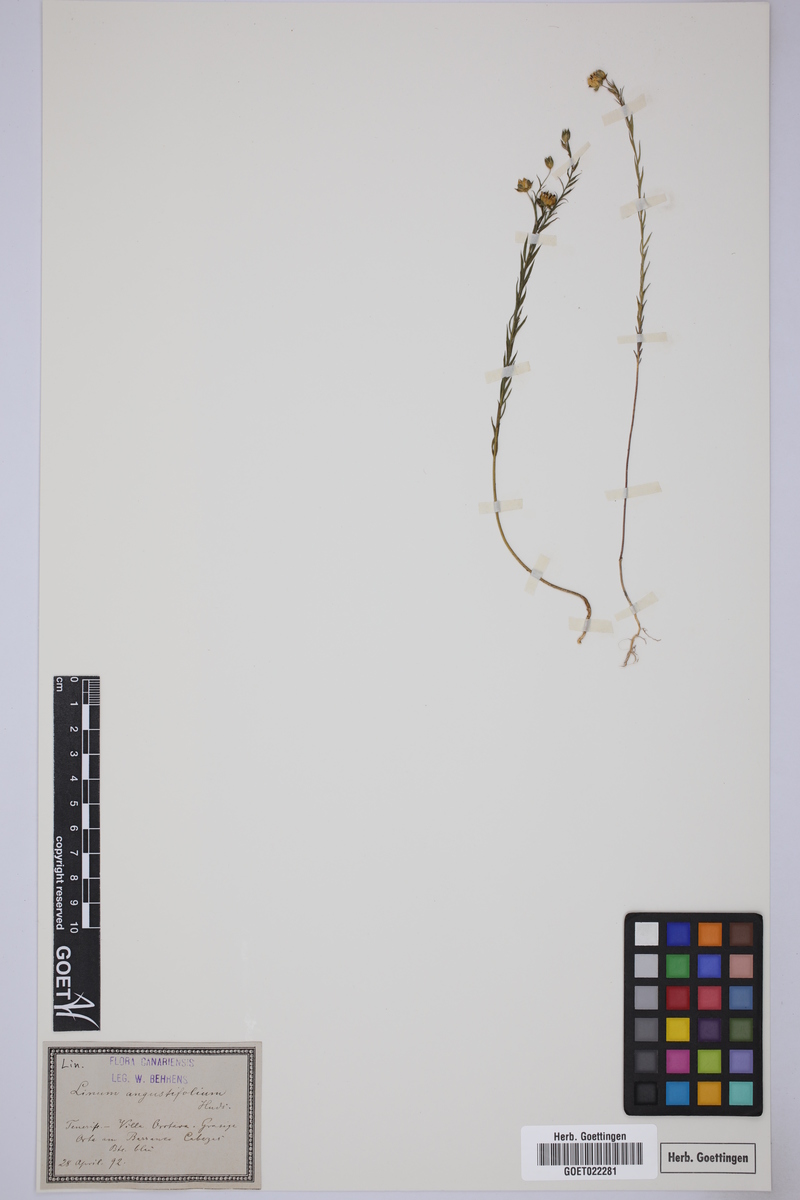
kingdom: Plantae
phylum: Tracheophyta
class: Magnoliopsida
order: Malpighiales
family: Linaceae
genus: Linum
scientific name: Linum bienne
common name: Pale flax
